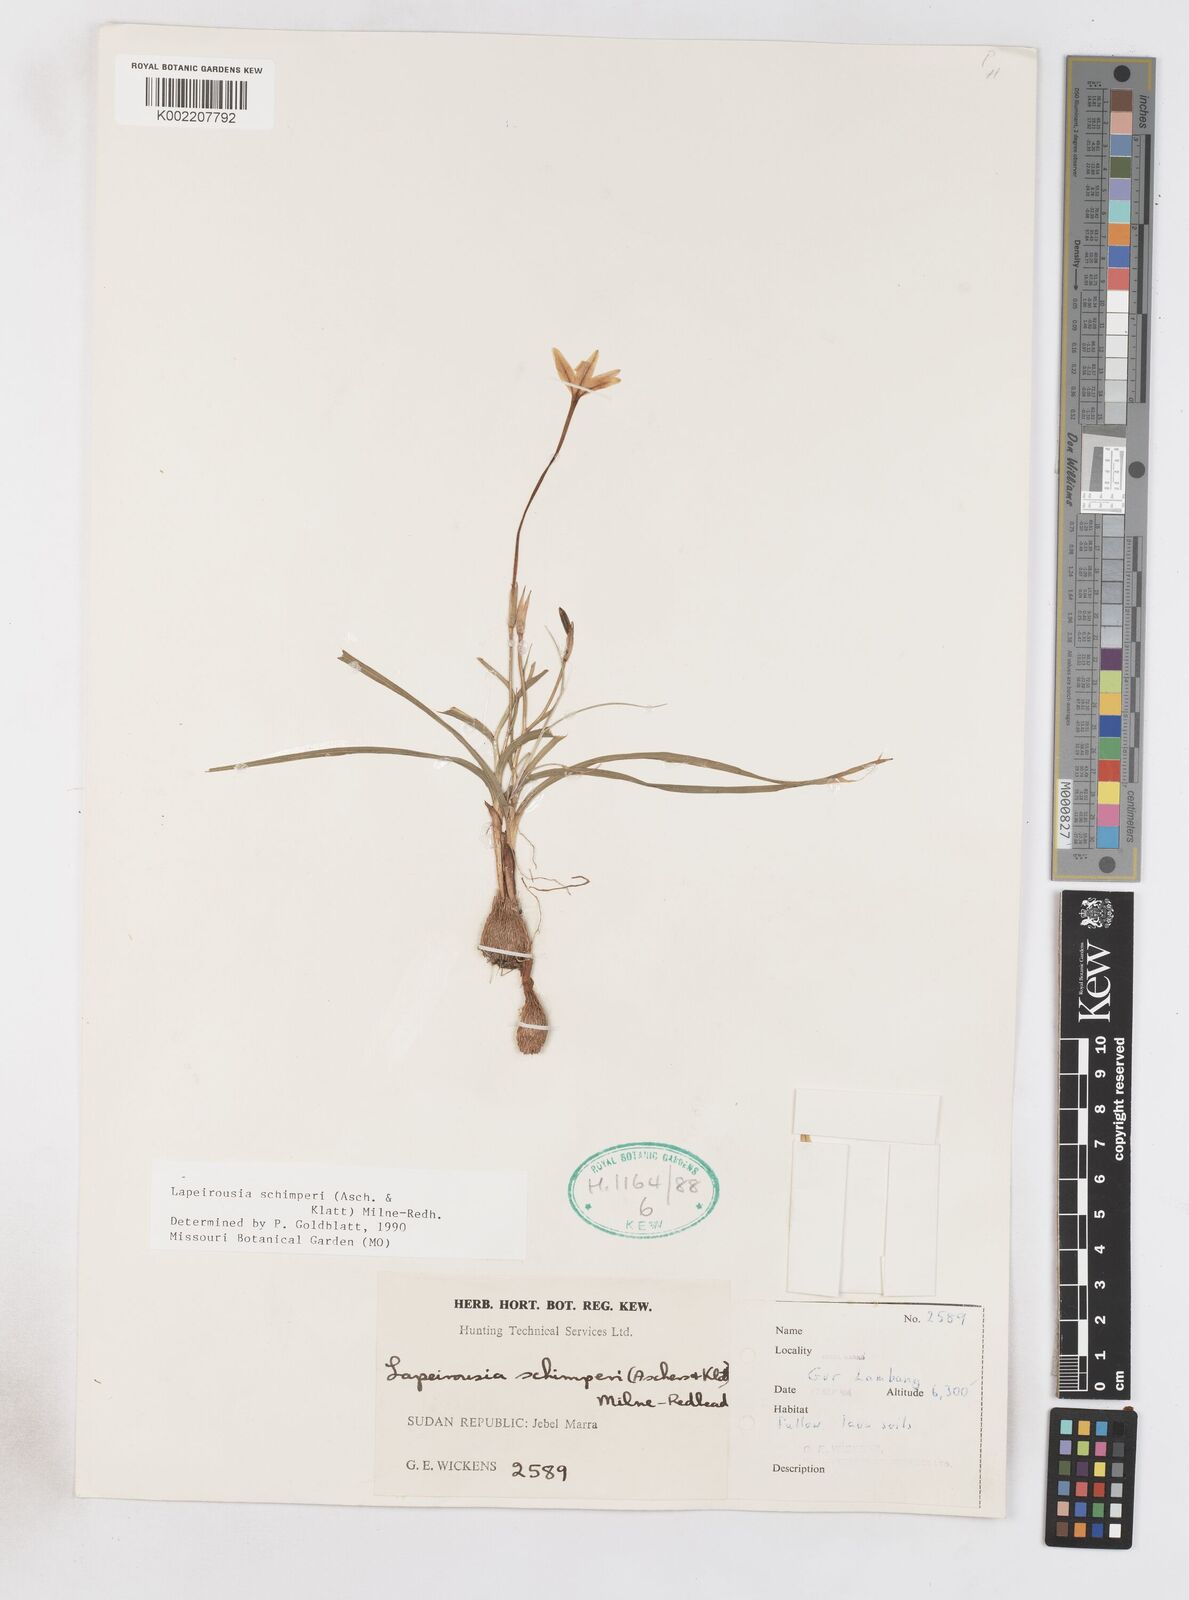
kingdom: Plantae
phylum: Tracheophyta
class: Liliopsida
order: Asparagales
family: Iridaceae
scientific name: Iridaceae
